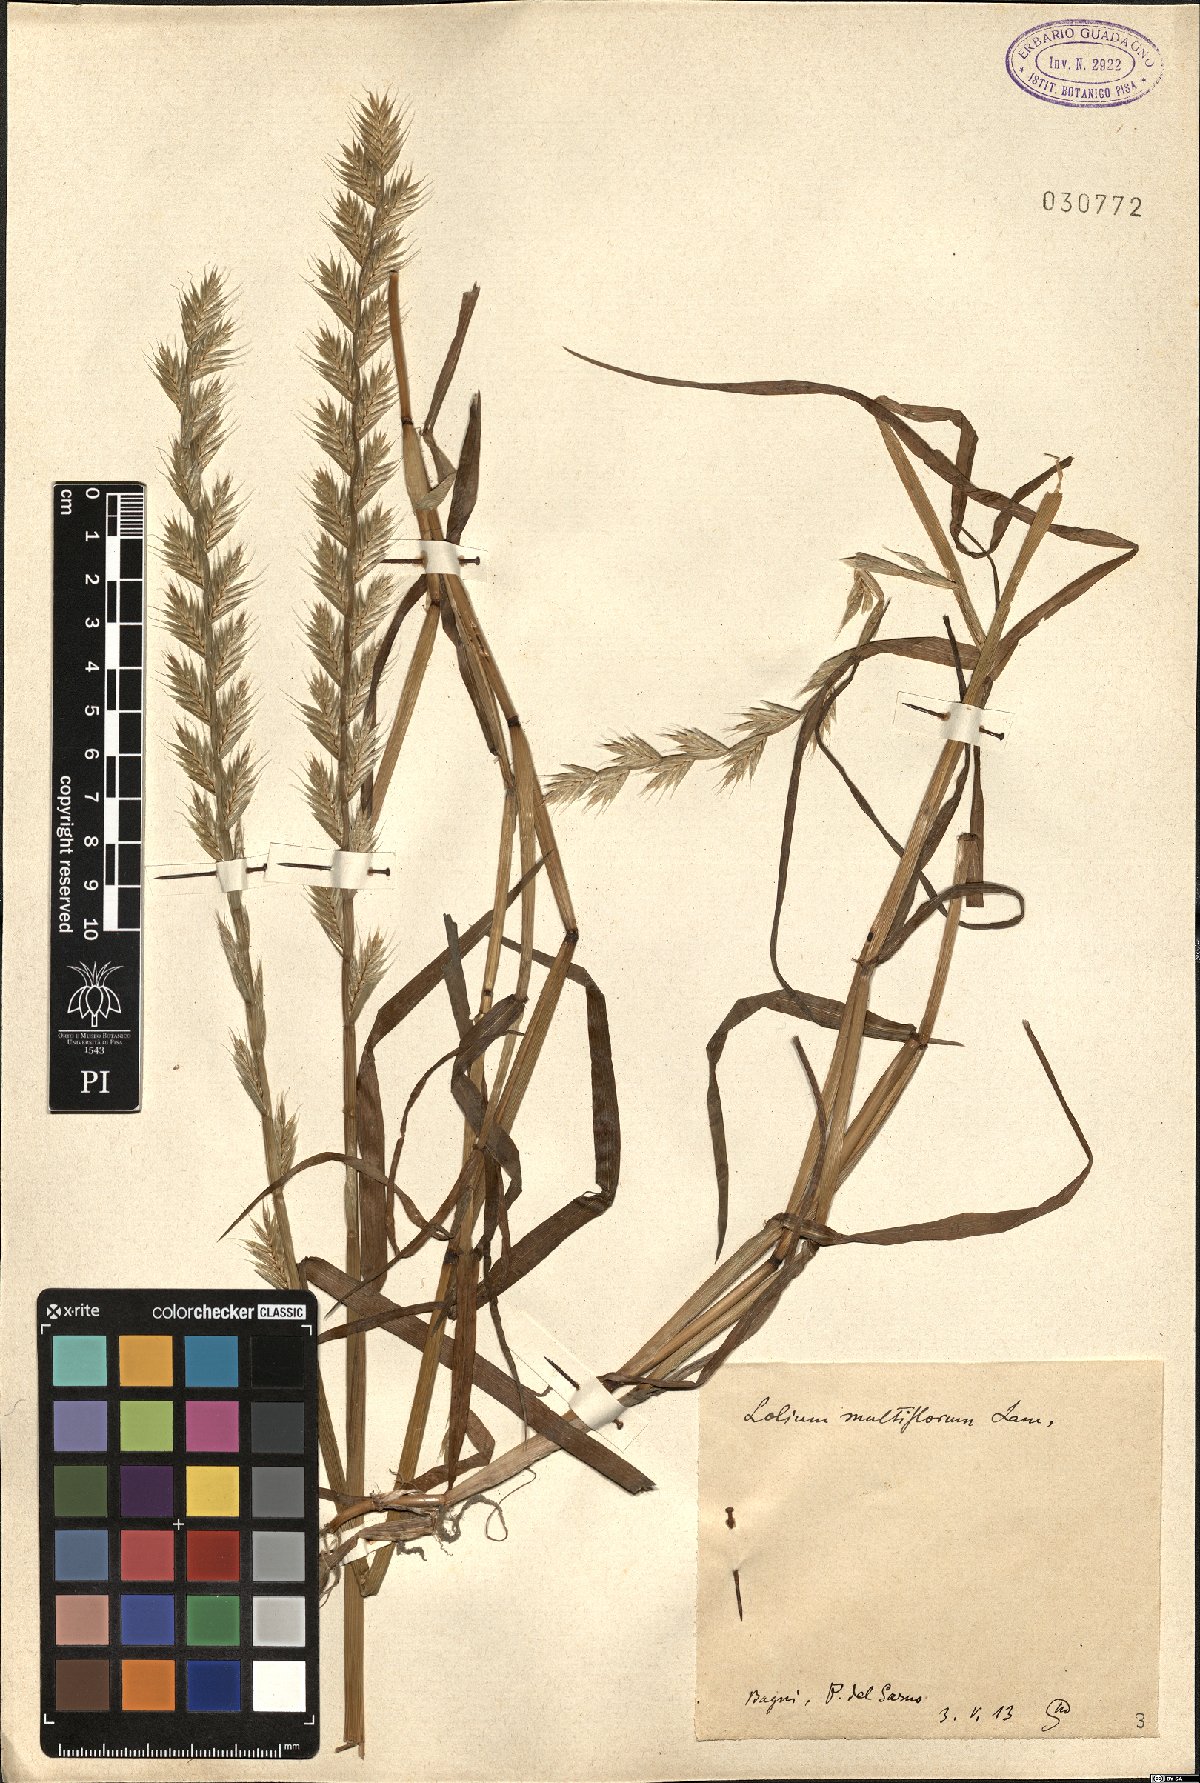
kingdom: Plantae
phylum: Tracheophyta
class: Liliopsida
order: Poales
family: Poaceae
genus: Lolium
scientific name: Lolium multiflorum
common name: Annual ryegrass
